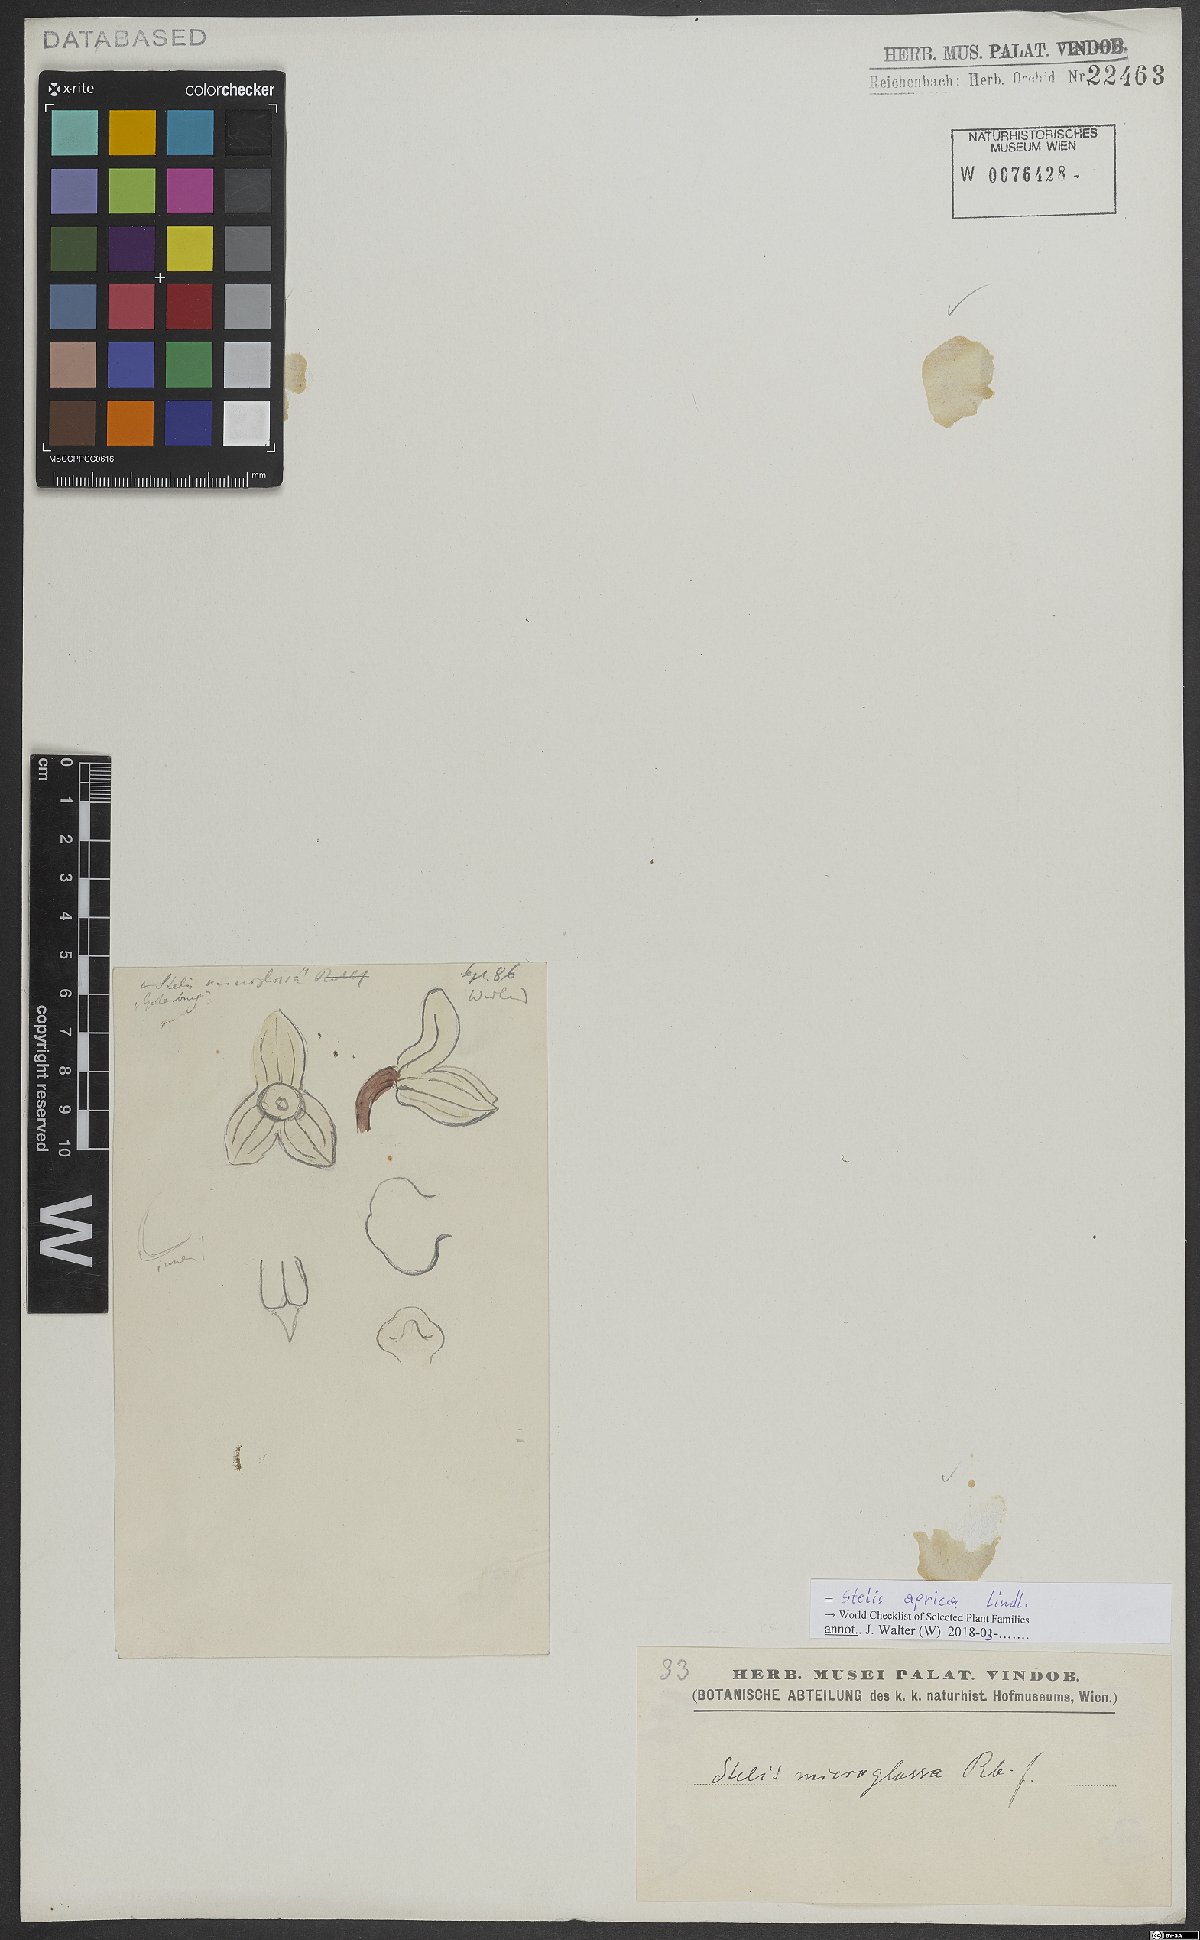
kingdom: Plantae
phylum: Tracheophyta
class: Liliopsida
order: Asparagales
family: Orchidaceae
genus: Stelis
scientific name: Stelis aprica
